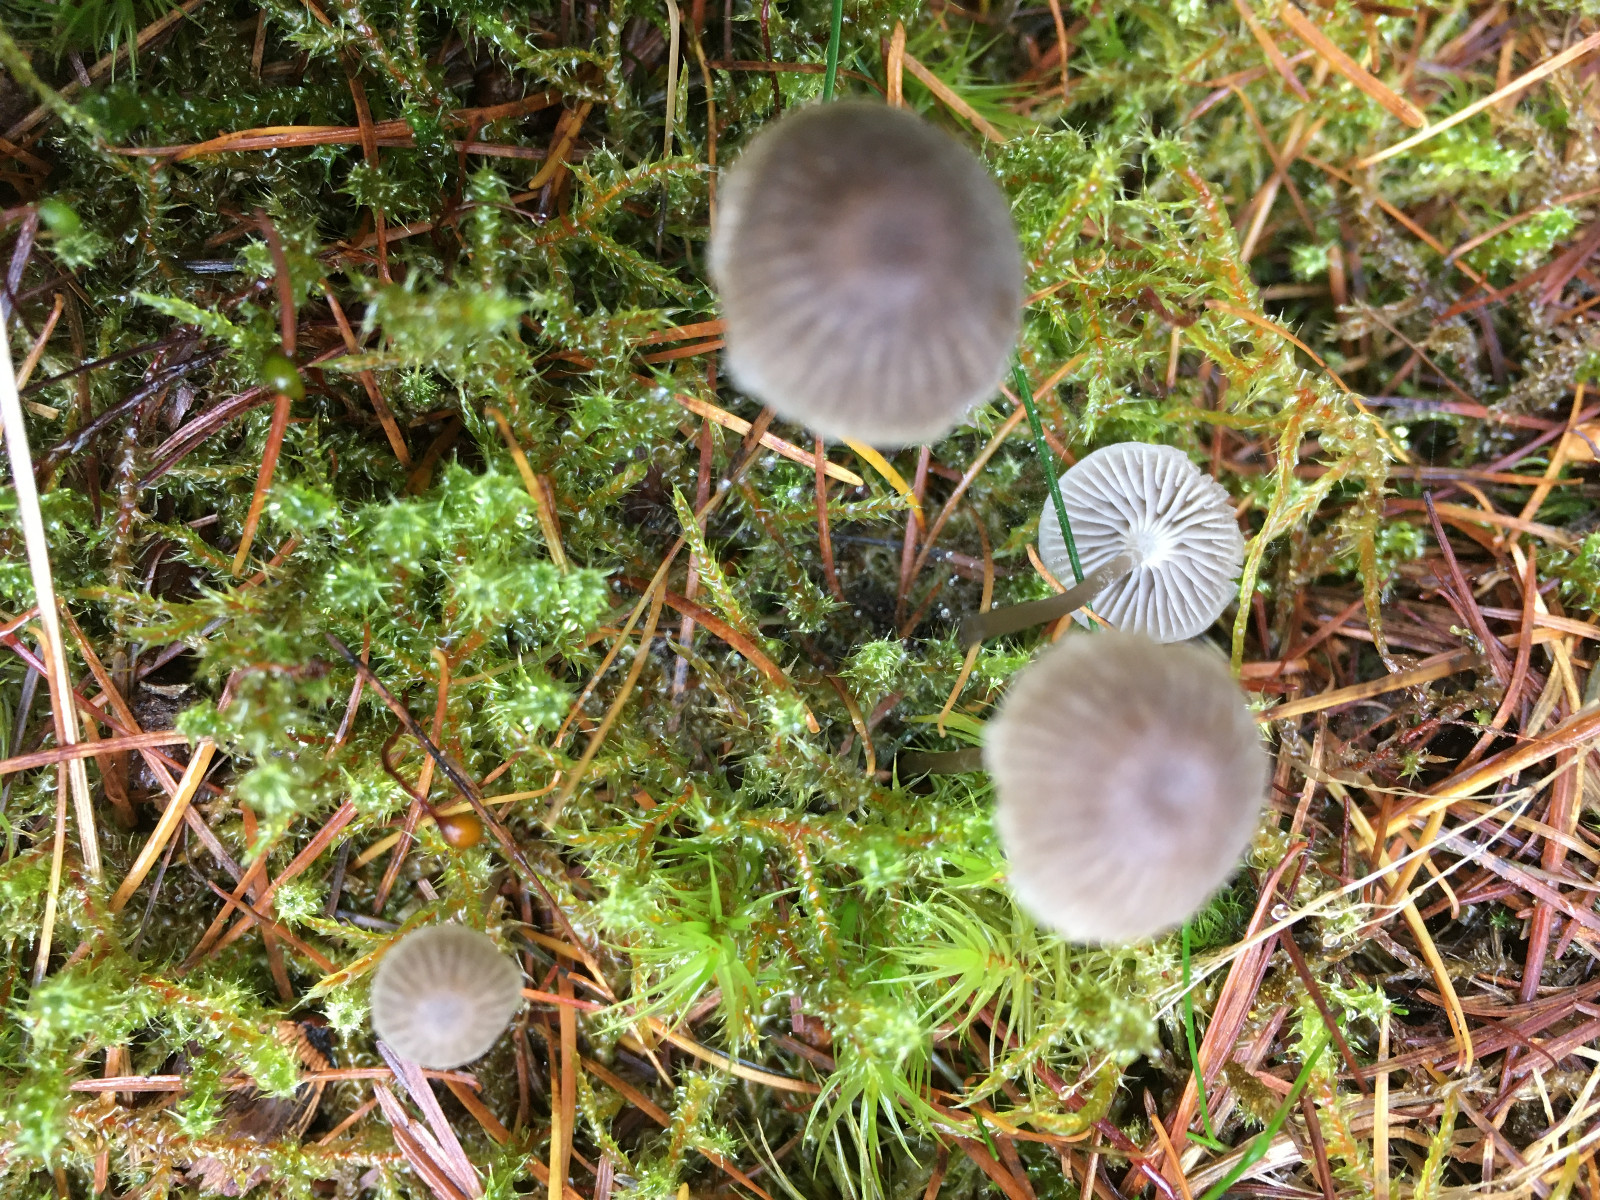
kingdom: Fungi
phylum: Basidiomycota
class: Agaricomycetes
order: Agaricales
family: Mycenaceae
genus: Mycena
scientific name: Mycena cinerella
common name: mel-huesvamp
